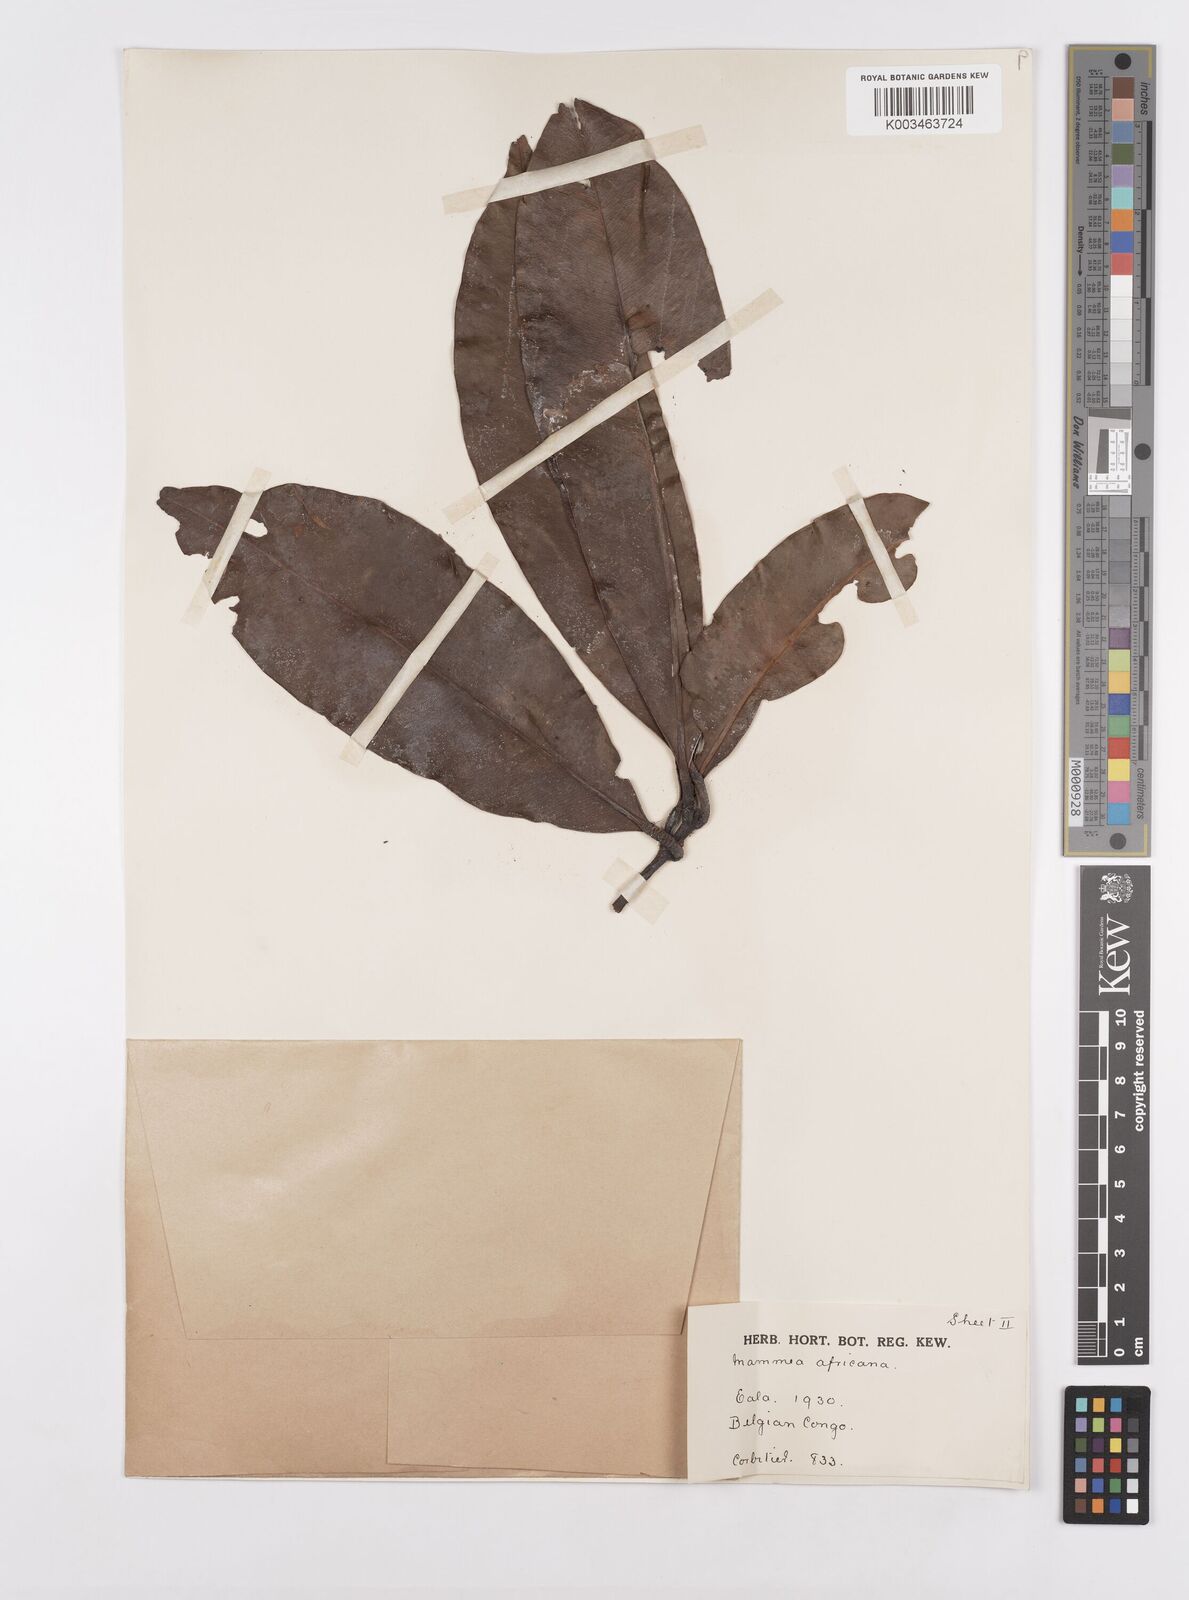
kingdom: Plantae
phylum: Tracheophyta
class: Magnoliopsida
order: Malpighiales
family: Calophyllaceae
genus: Mammea
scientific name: Mammea africana
